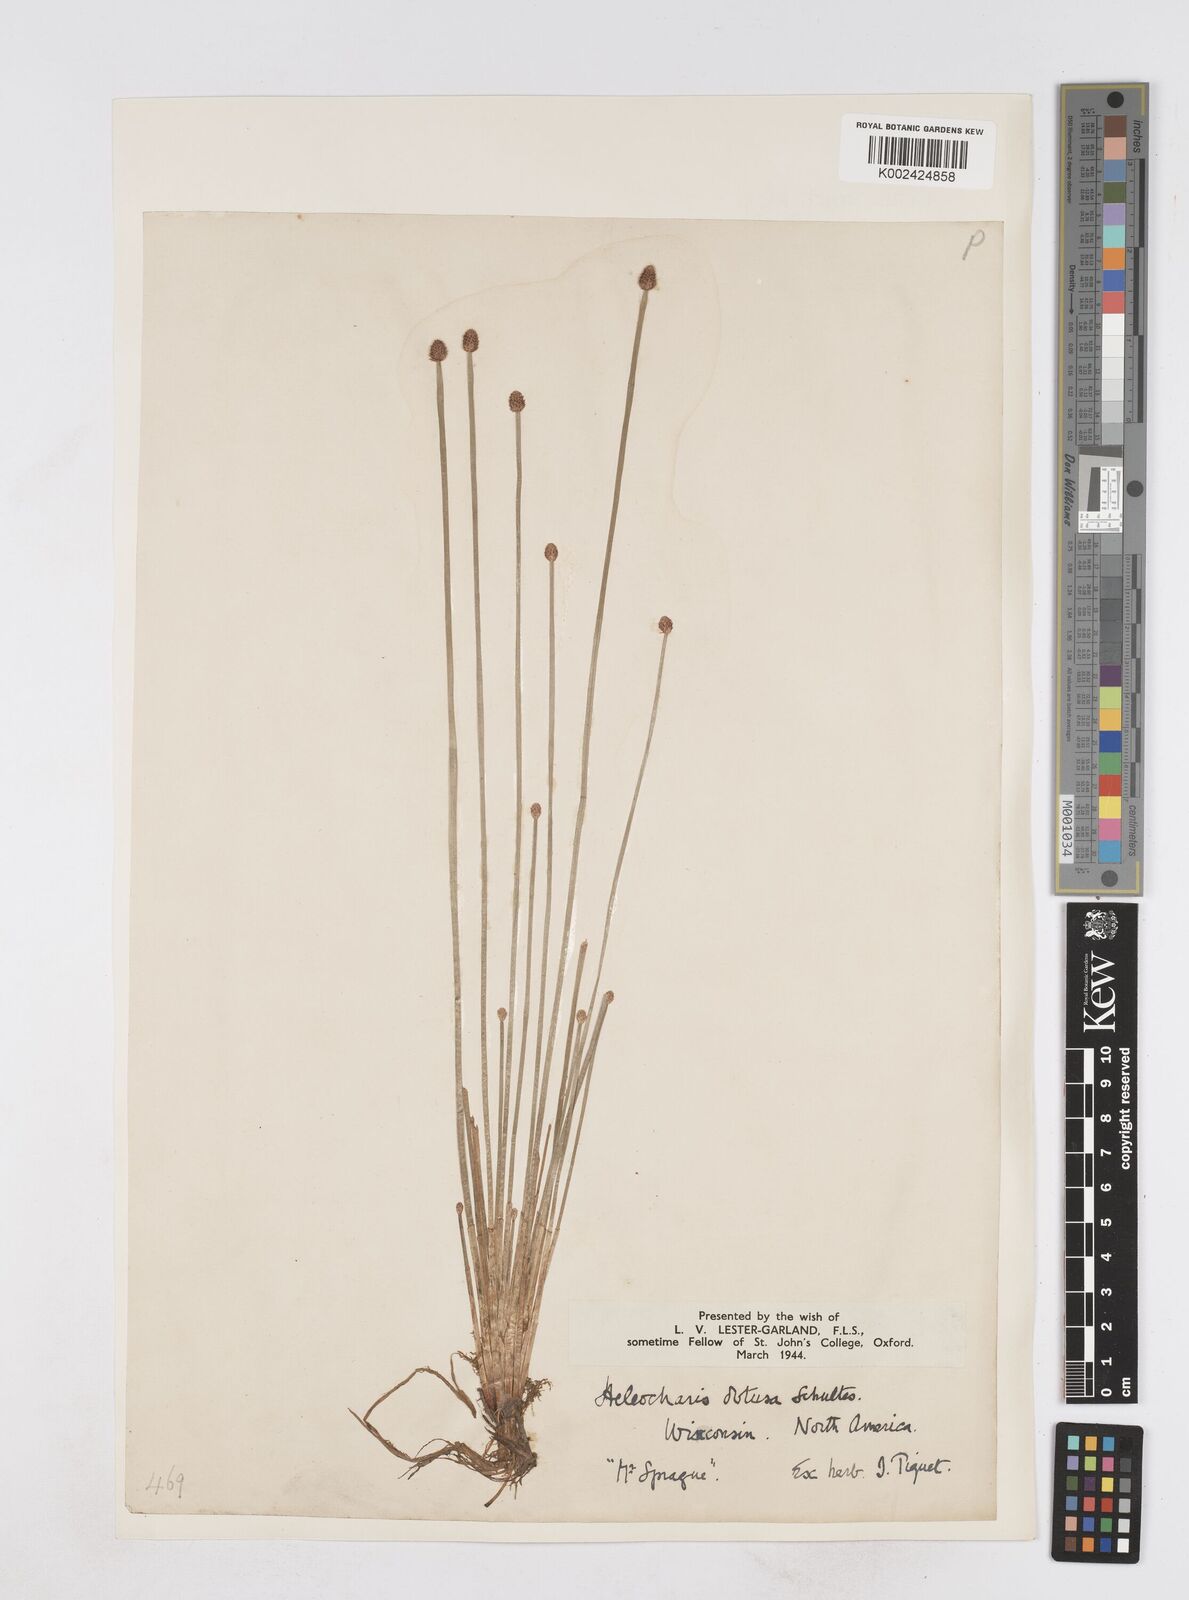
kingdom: Plantae
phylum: Tracheophyta
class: Liliopsida
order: Poales
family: Cyperaceae
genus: Eleocharis
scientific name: Eleocharis obtusa
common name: Blunt spikerush
